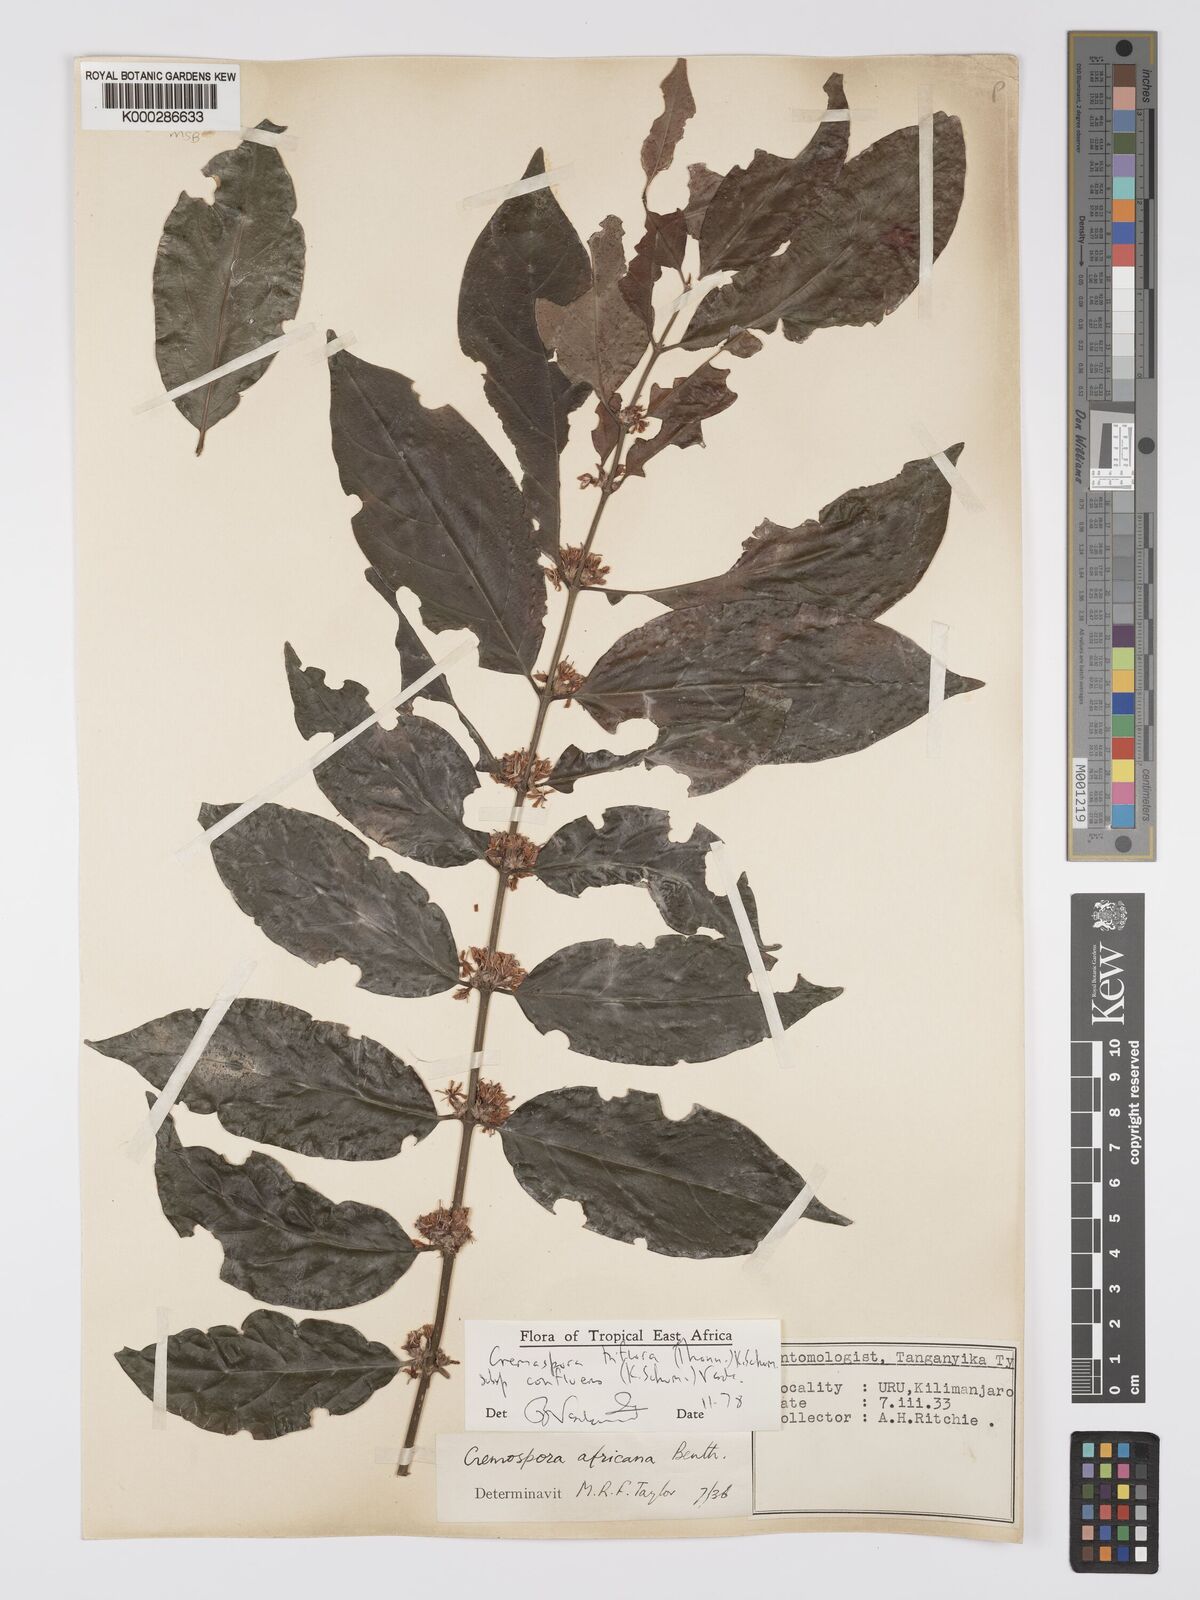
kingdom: Plantae
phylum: Tracheophyta
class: Magnoliopsida
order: Gentianales
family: Rubiaceae
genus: Cremaspora
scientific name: Cremaspora triflora
